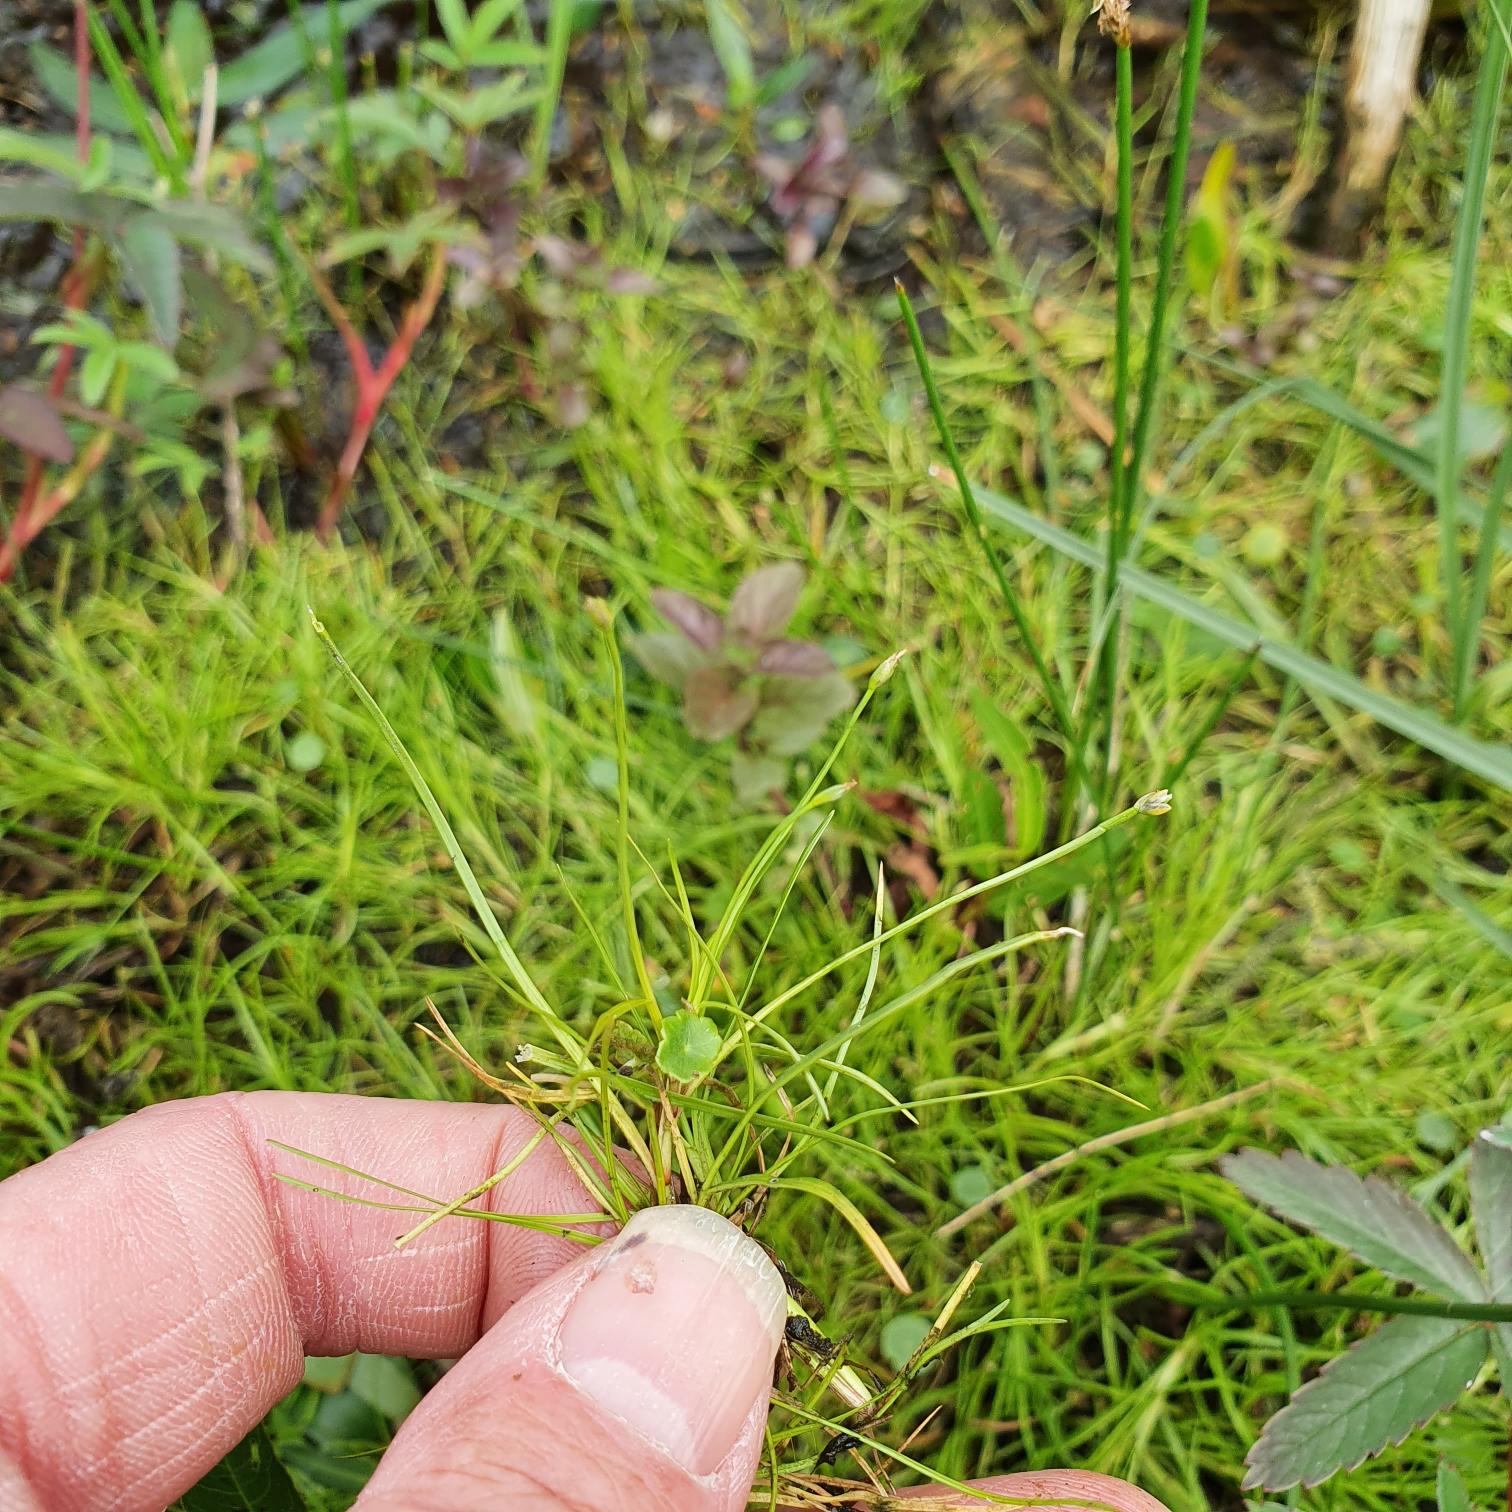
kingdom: Plantae
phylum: Tracheophyta
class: Liliopsida
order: Poales
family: Cyperaceae
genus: Isolepis
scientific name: Isolepis fluitans
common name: Flydende kogleaks
